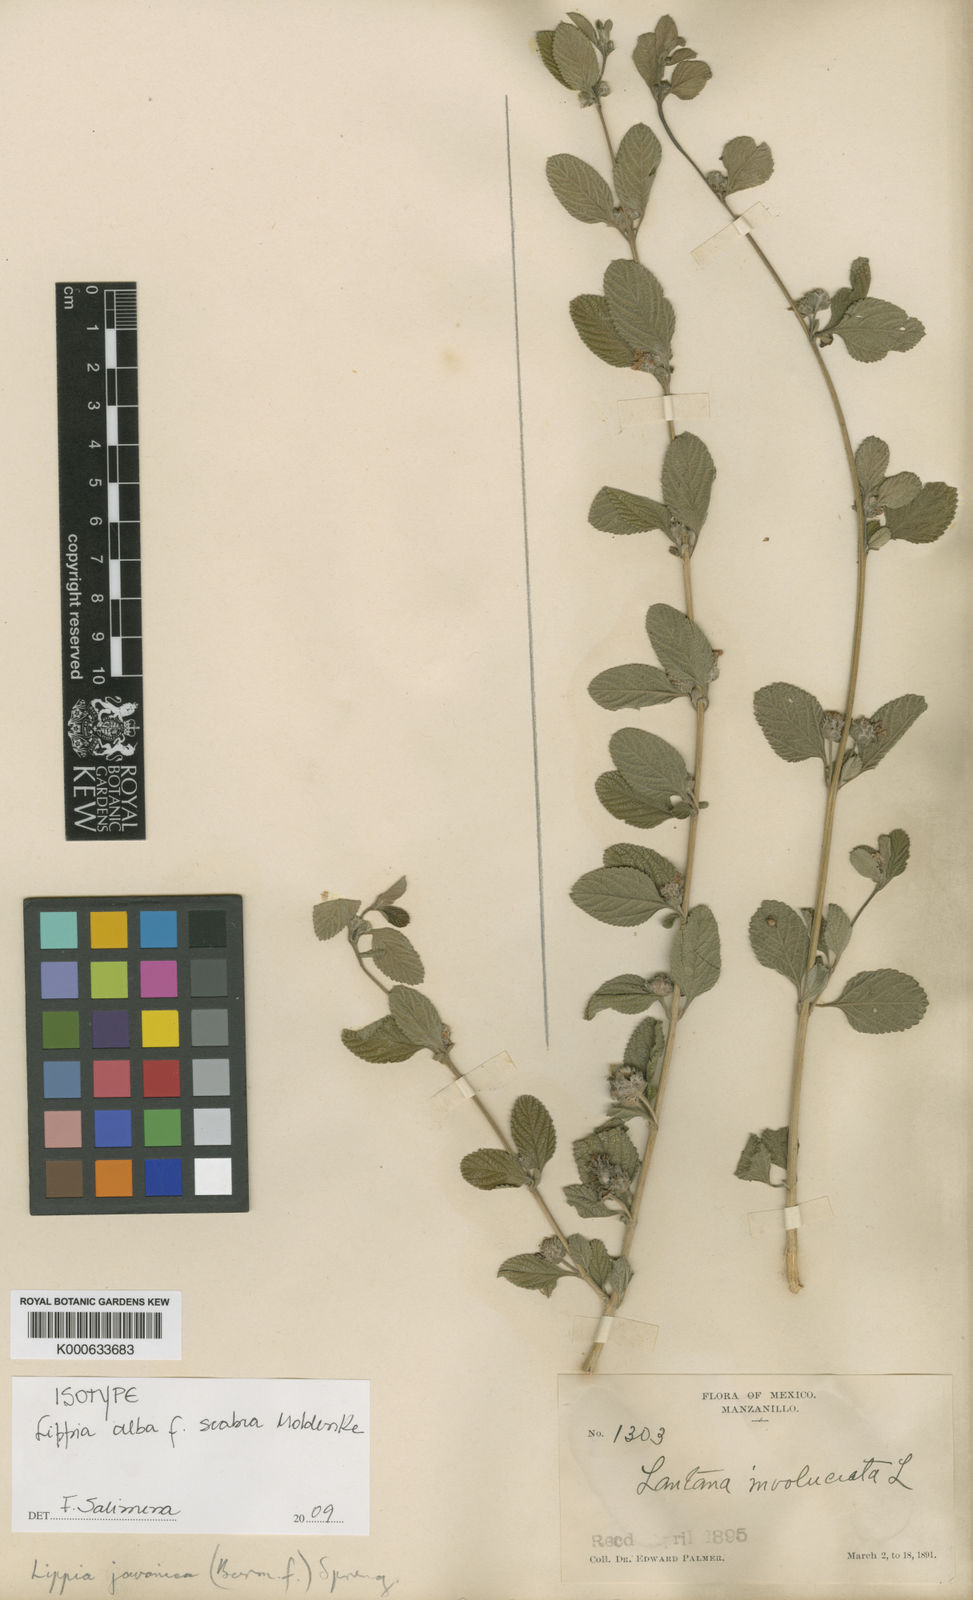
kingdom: Plantae
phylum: Tracheophyta
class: Magnoliopsida
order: Lamiales
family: Verbenaceae
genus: Lippia
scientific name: Lippia alba
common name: Bushy matgrass
